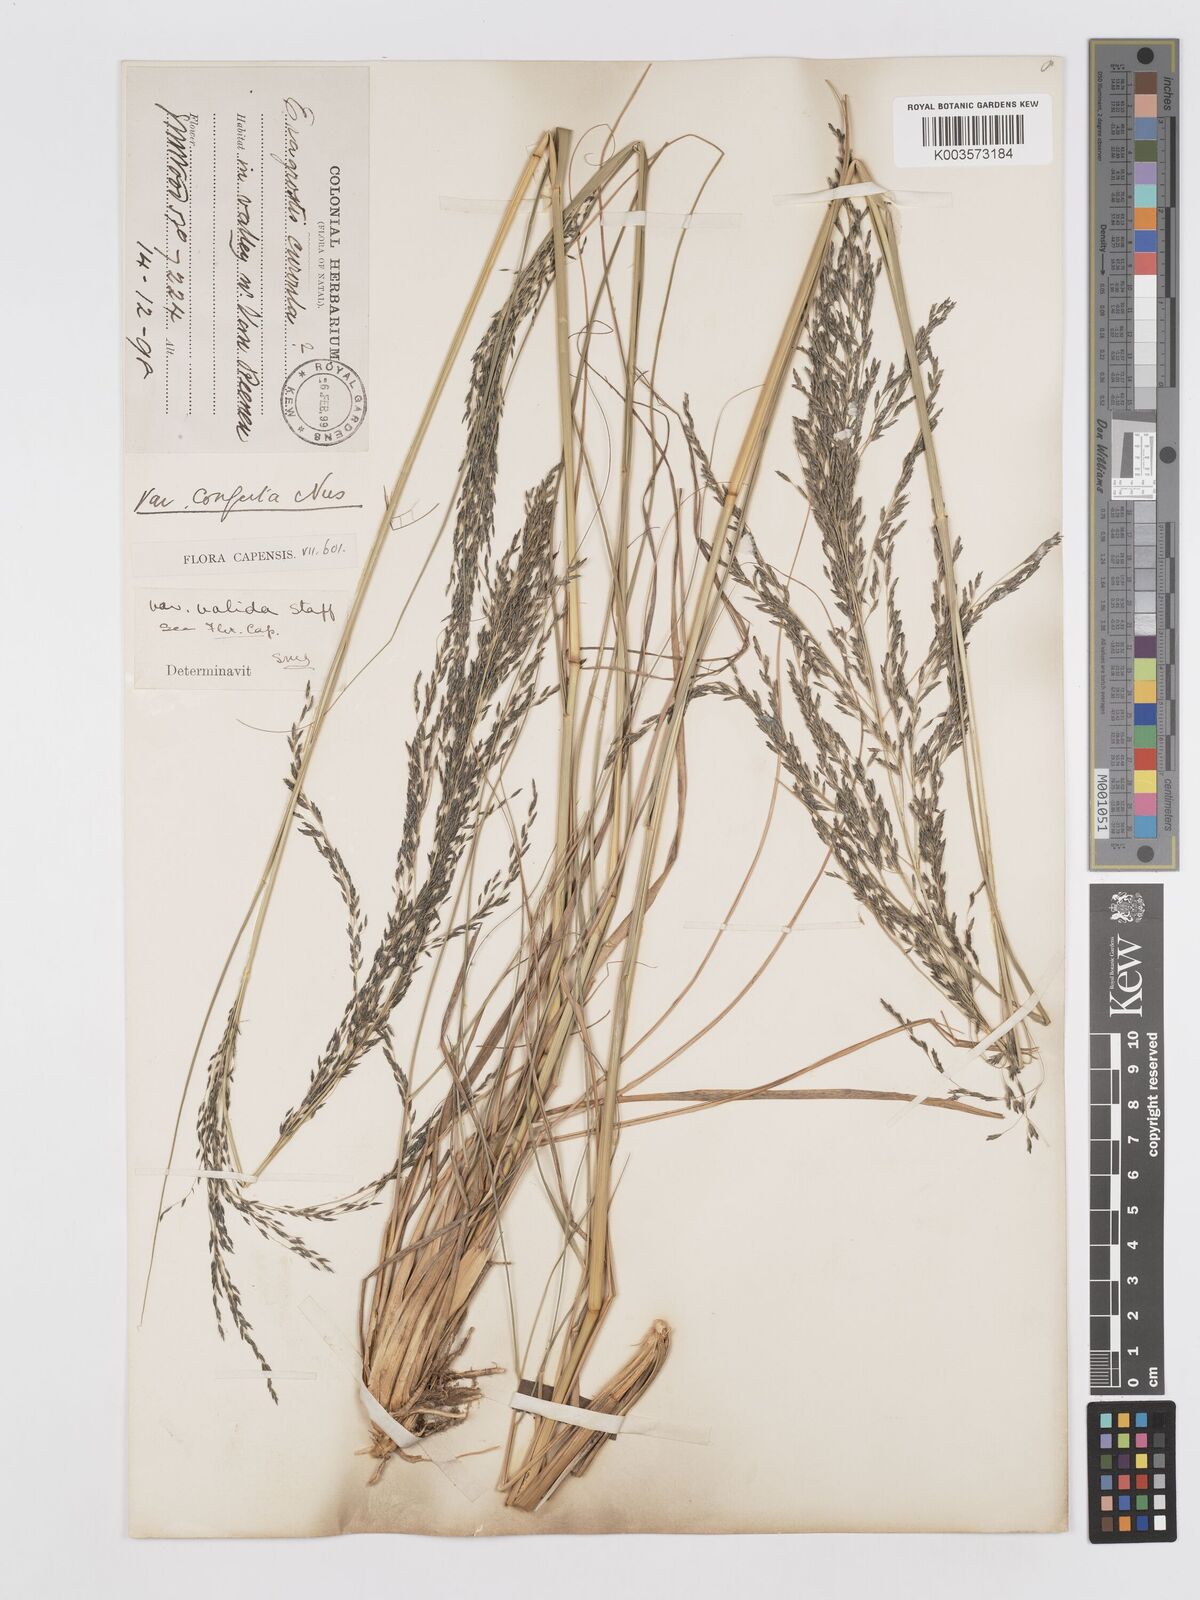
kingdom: Plantae
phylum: Tracheophyta
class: Liliopsida
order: Poales
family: Poaceae
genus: Eragrostis
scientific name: Eragrostis curvula
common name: African love-grass
